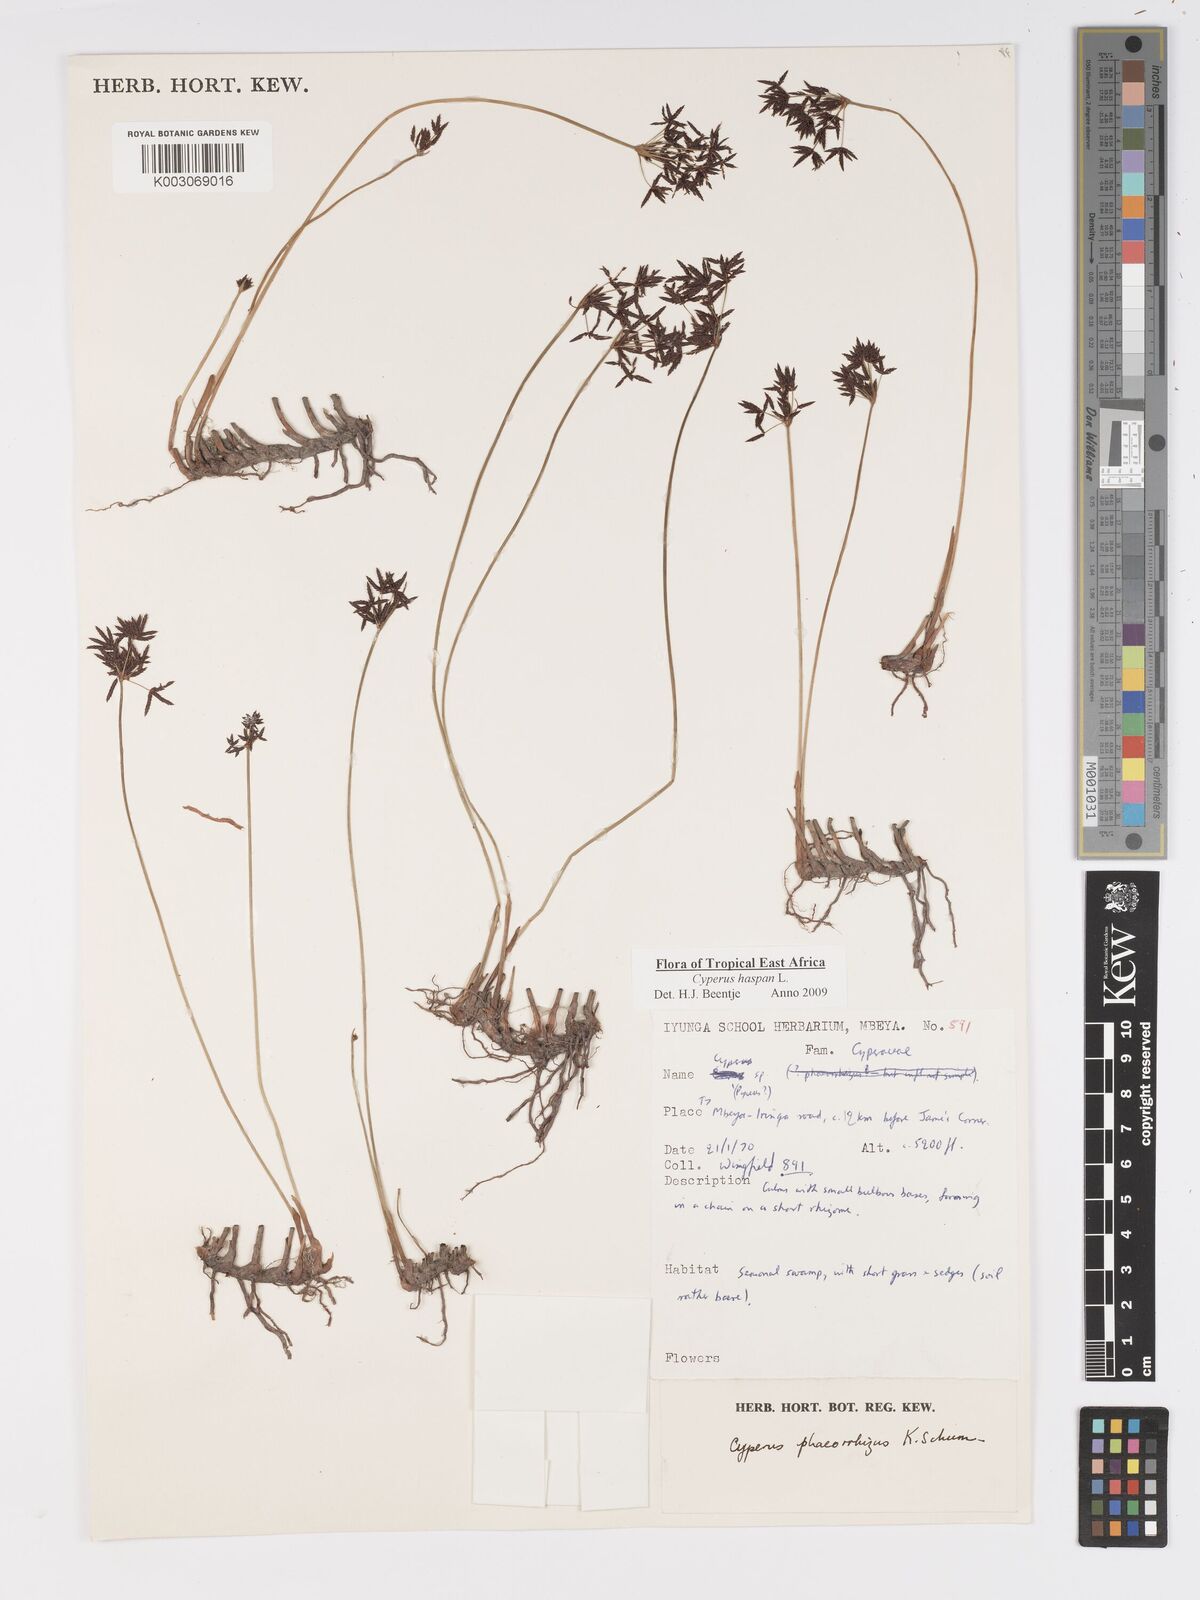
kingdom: Plantae
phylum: Tracheophyta
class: Liliopsida
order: Poales
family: Cyperaceae
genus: Cyperus
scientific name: Cyperus
